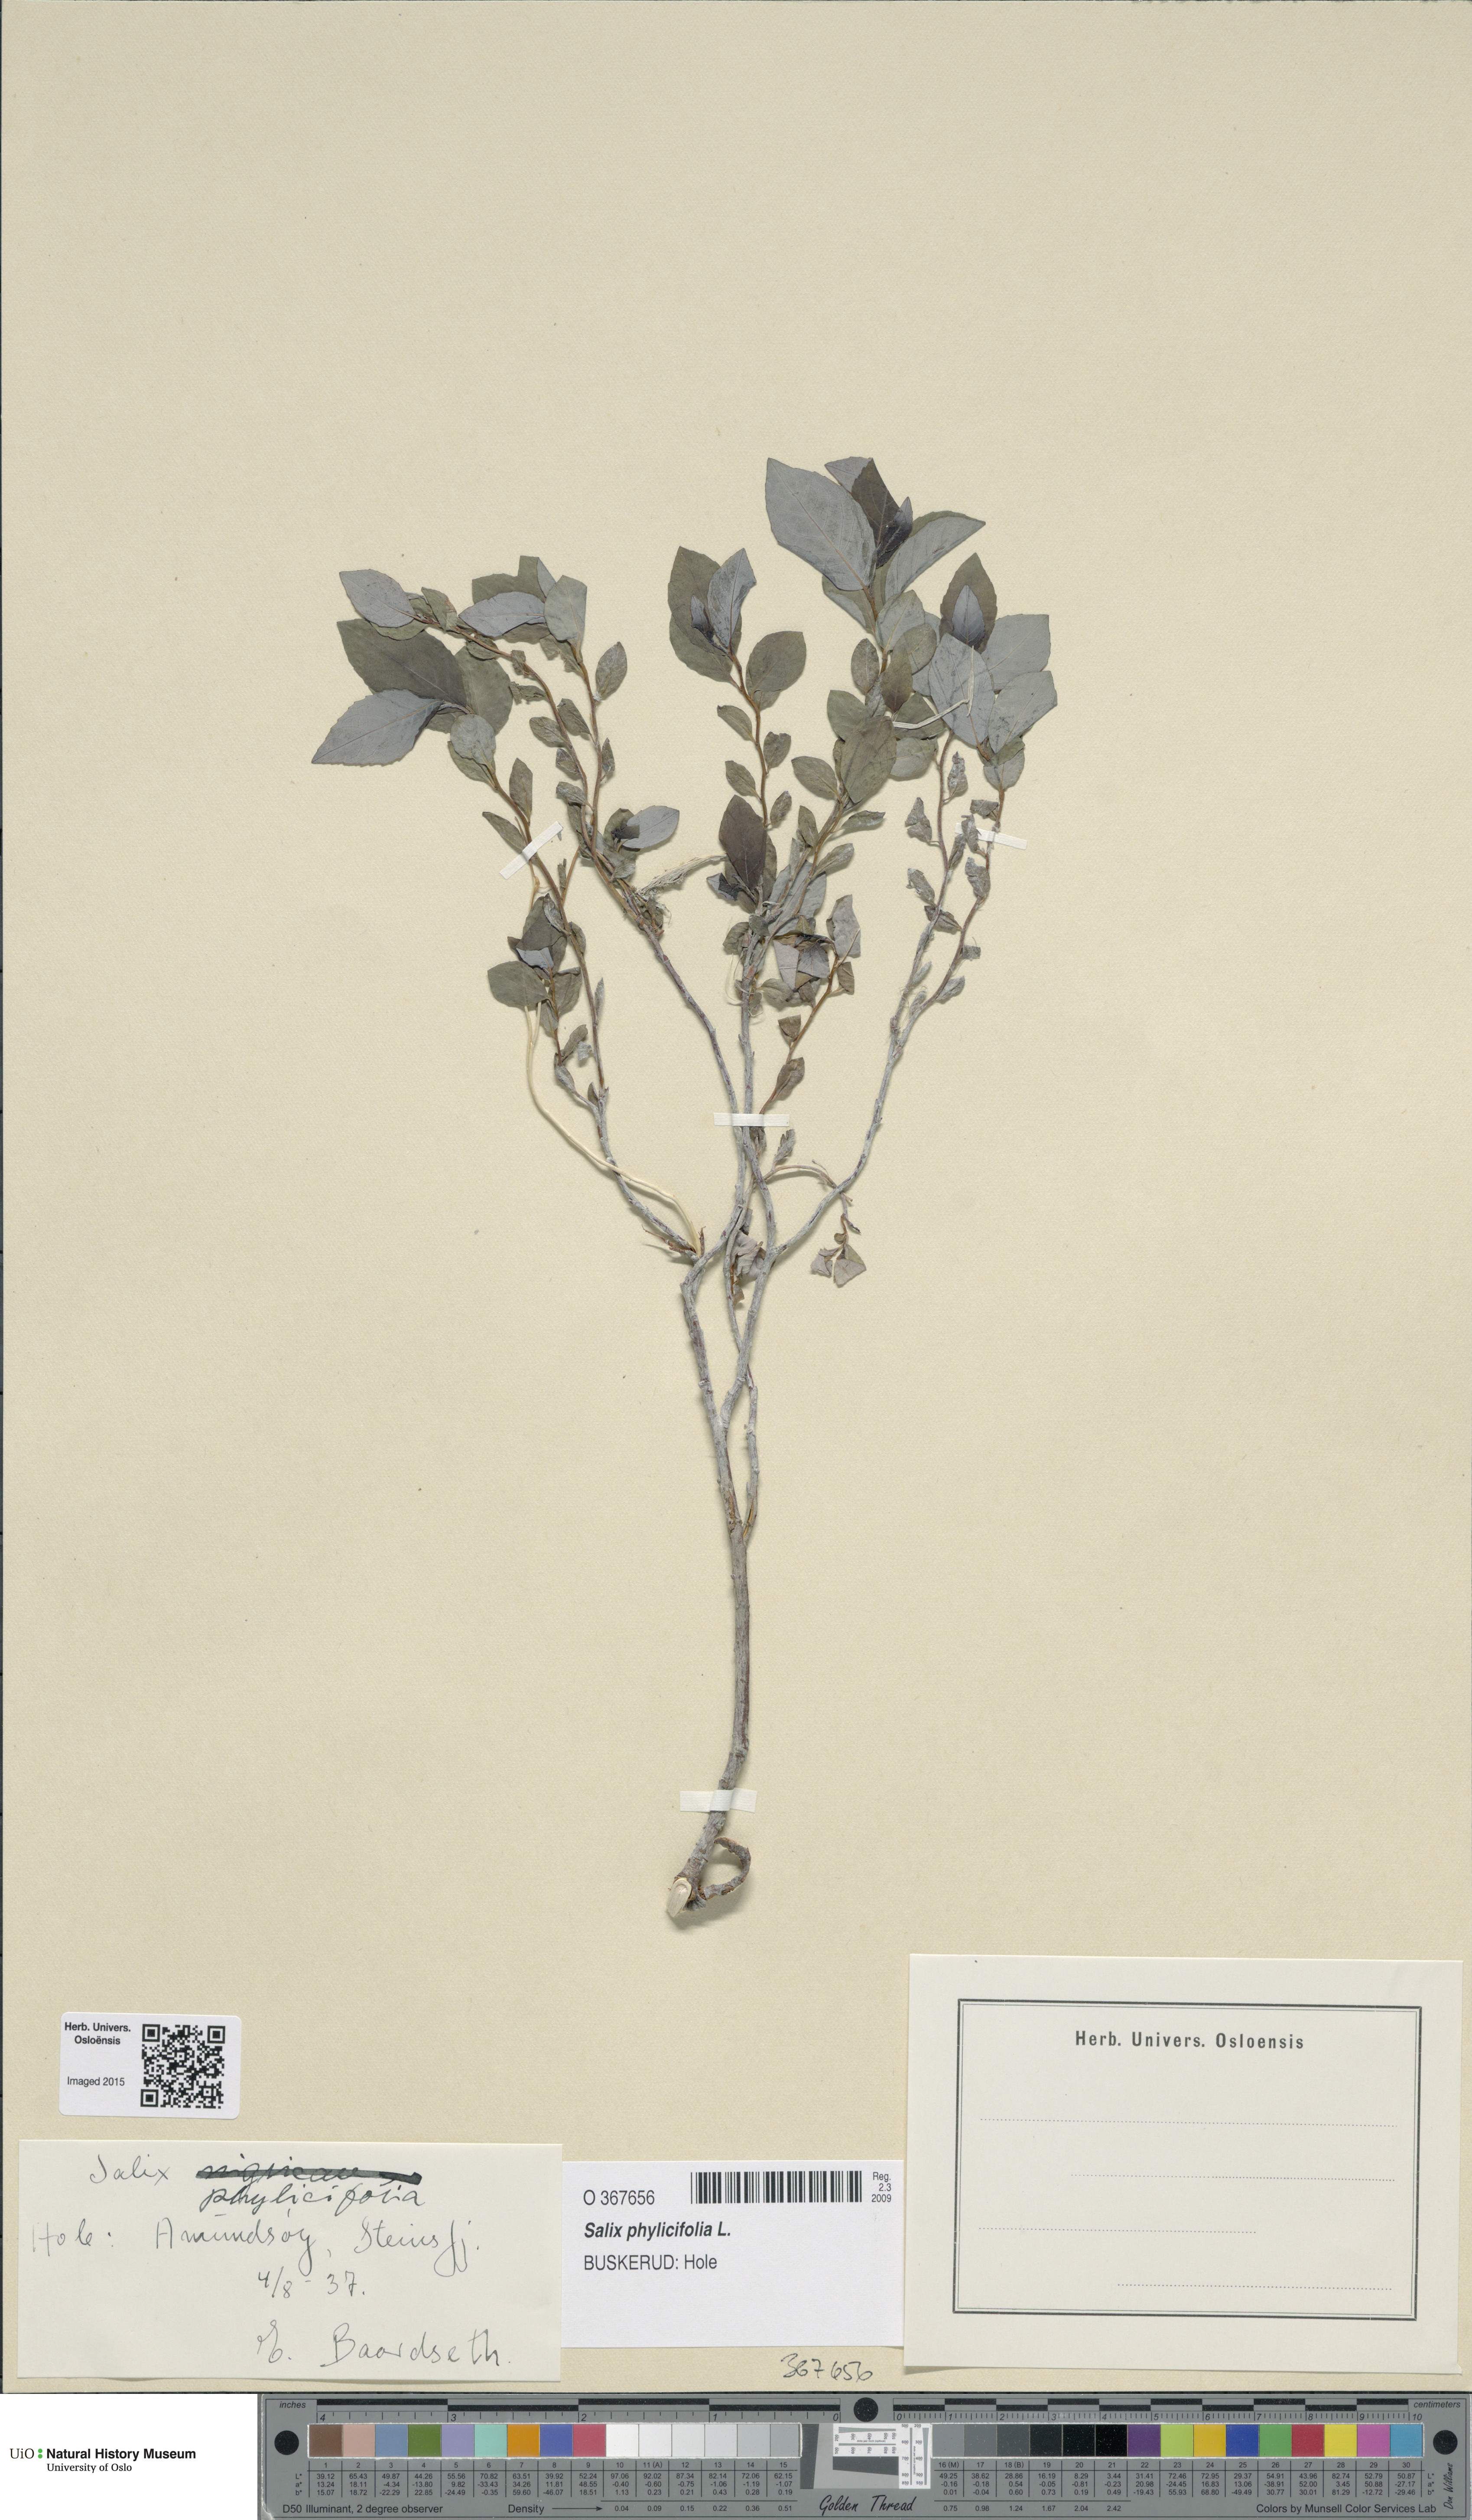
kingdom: Plantae
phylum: Tracheophyta
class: Magnoliopsida
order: Malpighiales
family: Salicaceae
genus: Salix
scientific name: Salix myrsinifolia
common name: Dark-leaved willow
